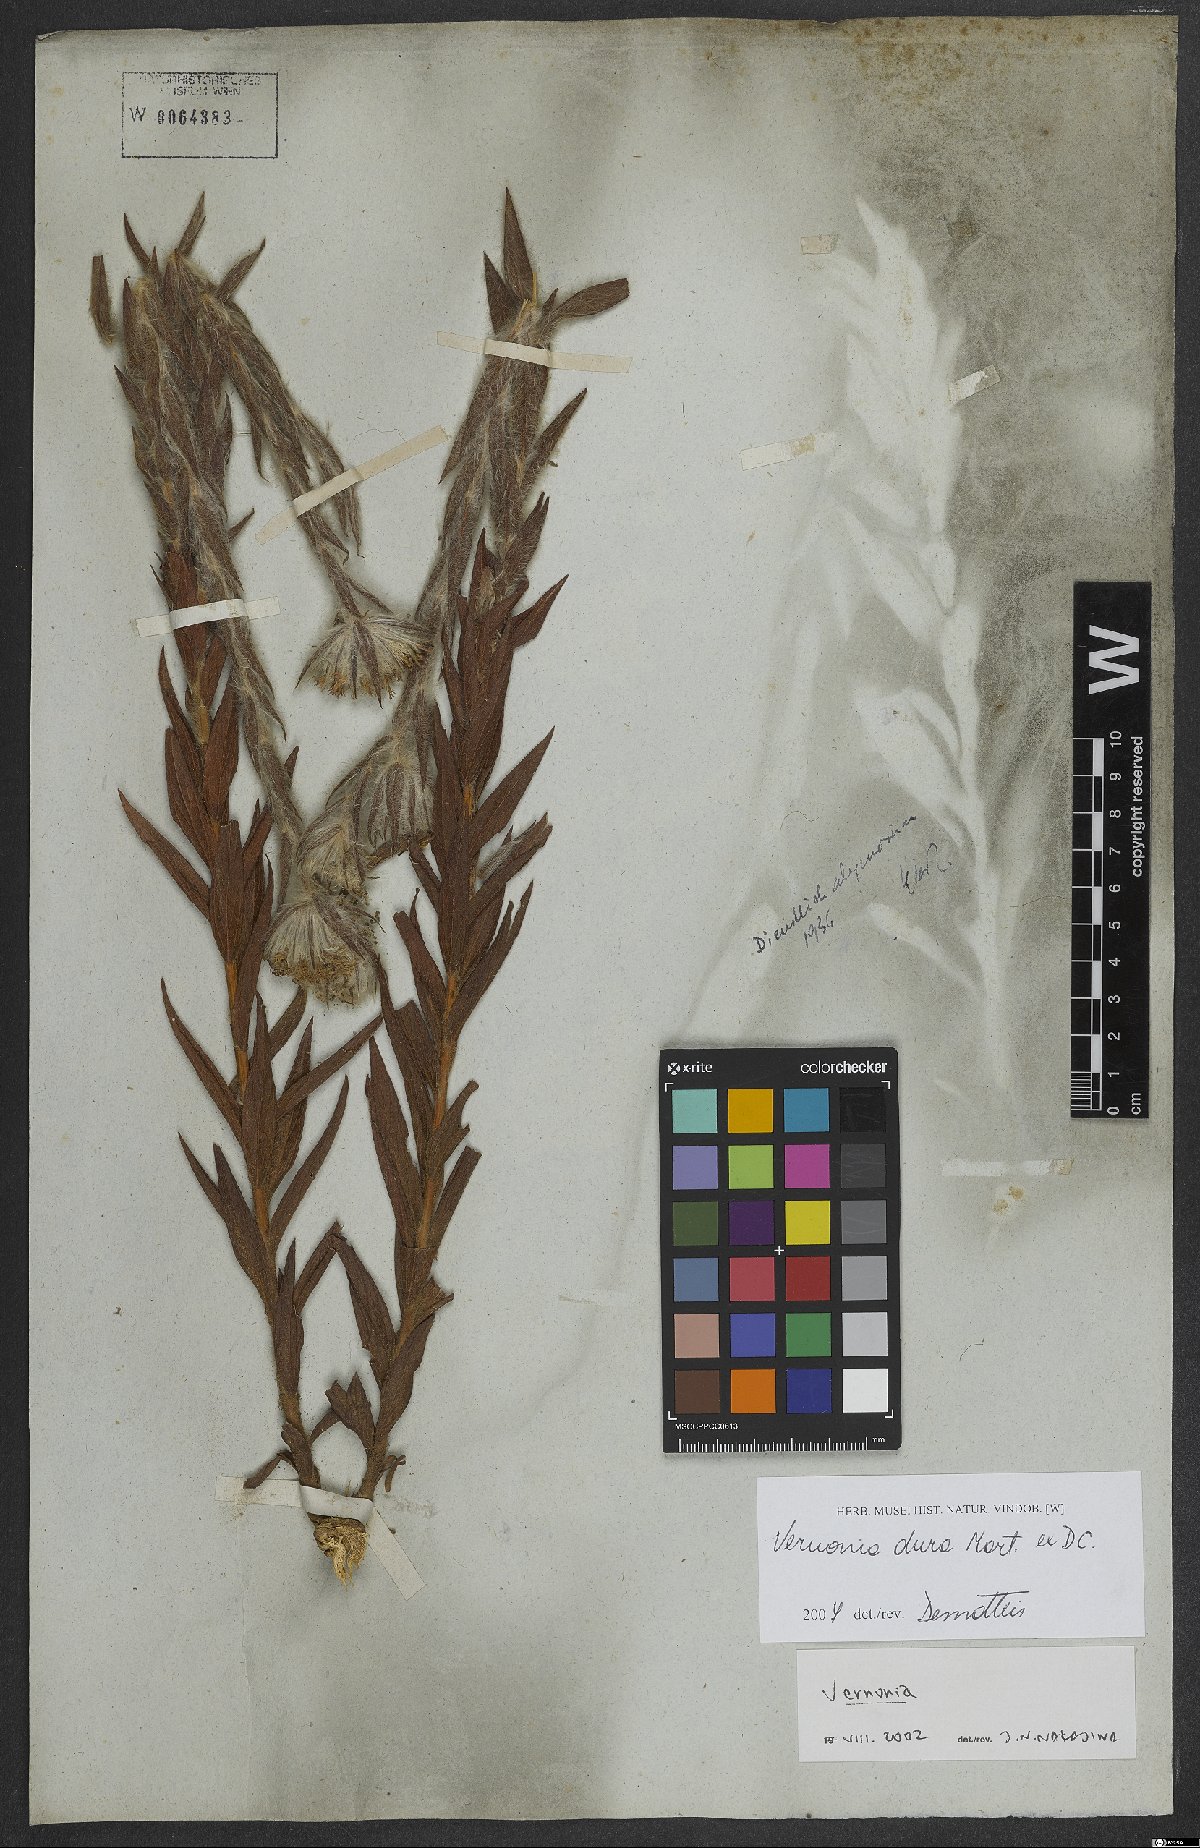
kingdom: Plantae
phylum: Tracheophyta
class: Magnoliopsida
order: Asterales
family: Asteraceae
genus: Lessingianthus
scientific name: Lessingianthus durus
